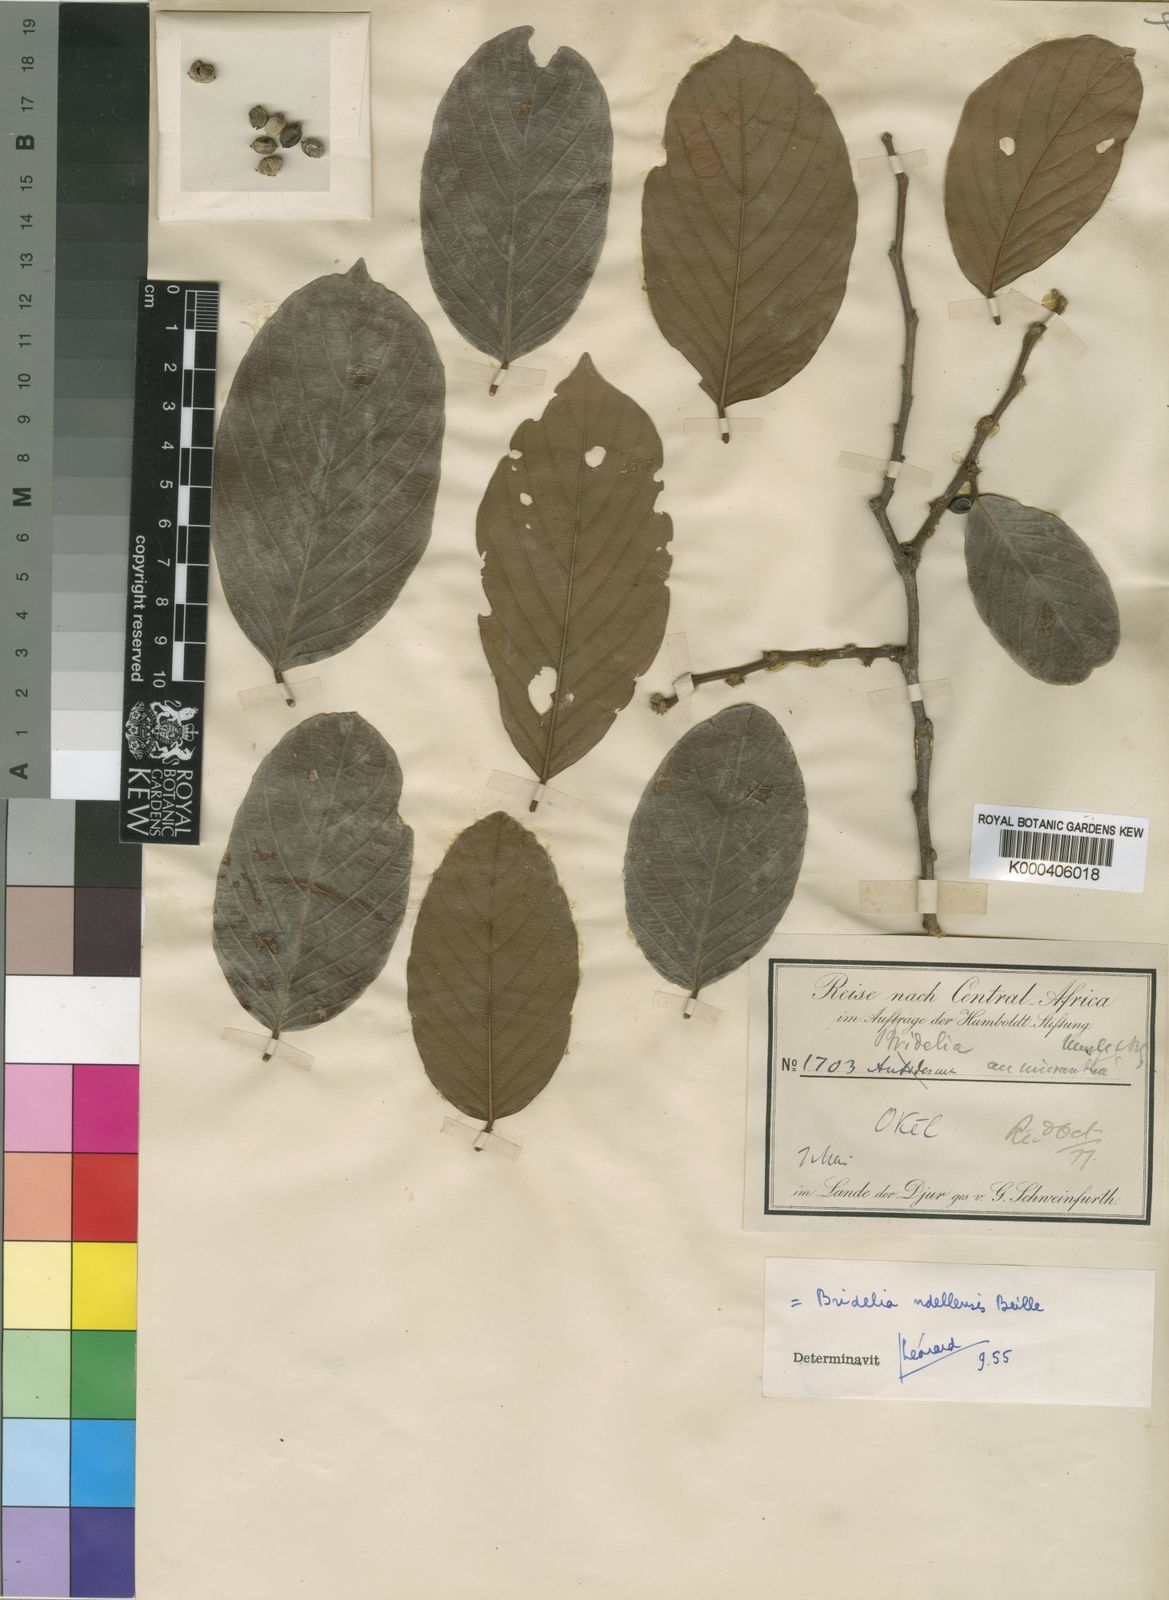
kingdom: Plantae
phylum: Tracheophyta
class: Magnoliopsida
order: Malpighiales
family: Phyllanthaceae
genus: Bridelia
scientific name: Bridelia ndellensis
